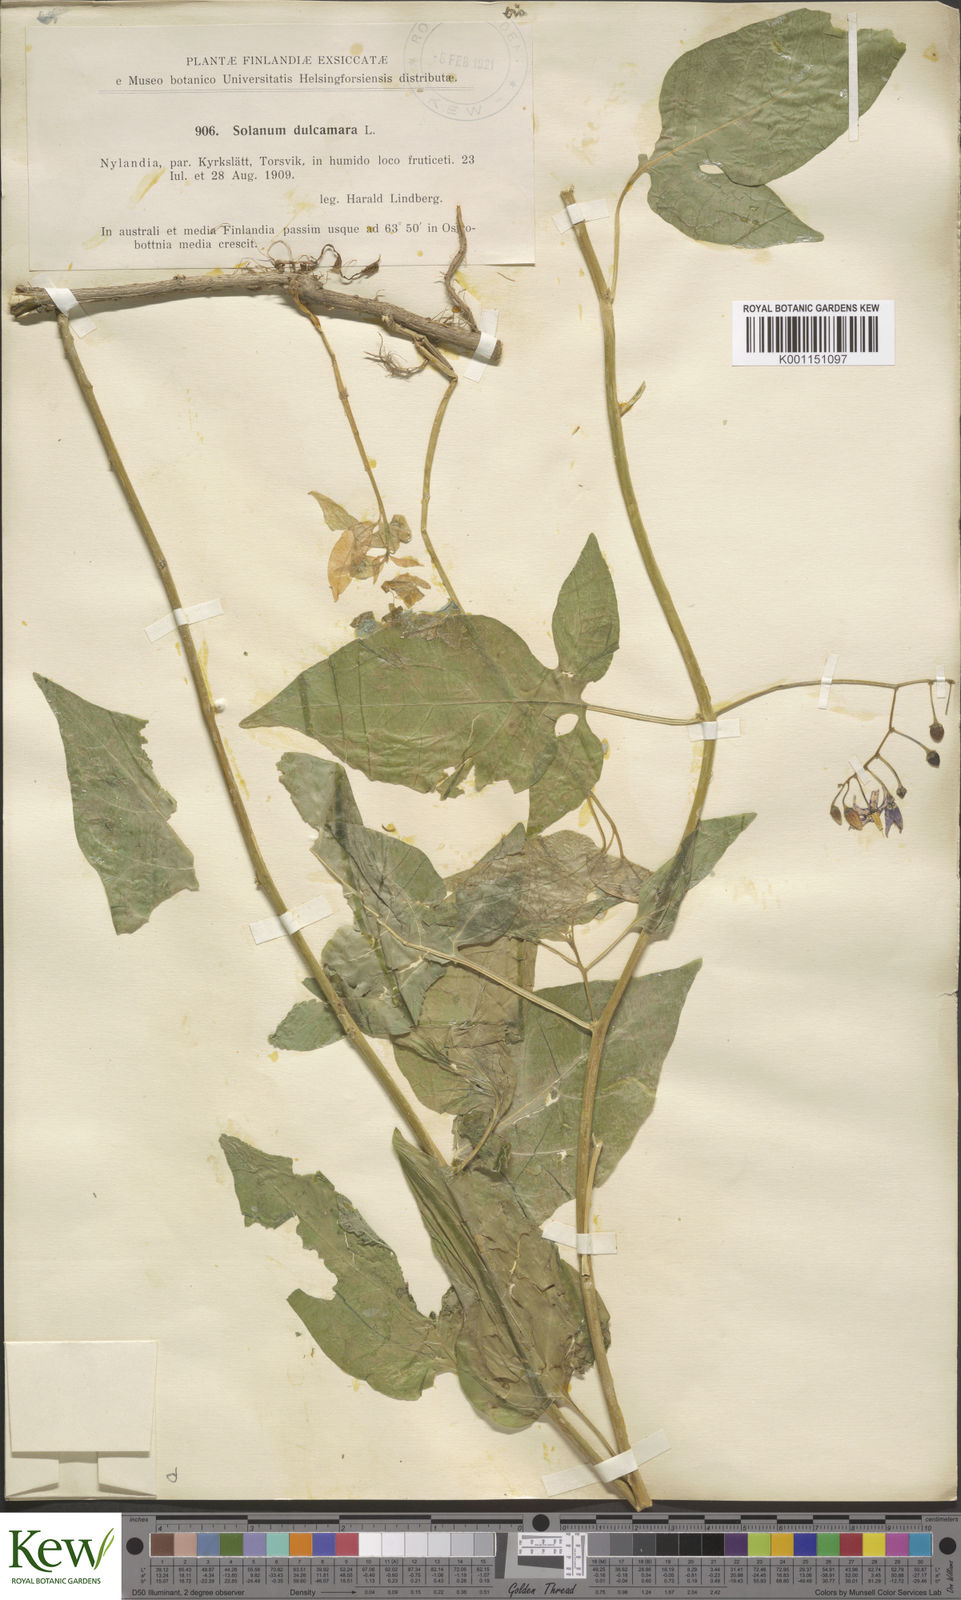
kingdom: Plantae
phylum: Tracheophyta
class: Magnoliopsida
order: Solanales
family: Solanaceae
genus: Solanum
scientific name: Solanum dulcamara
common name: Climbing nightshade
